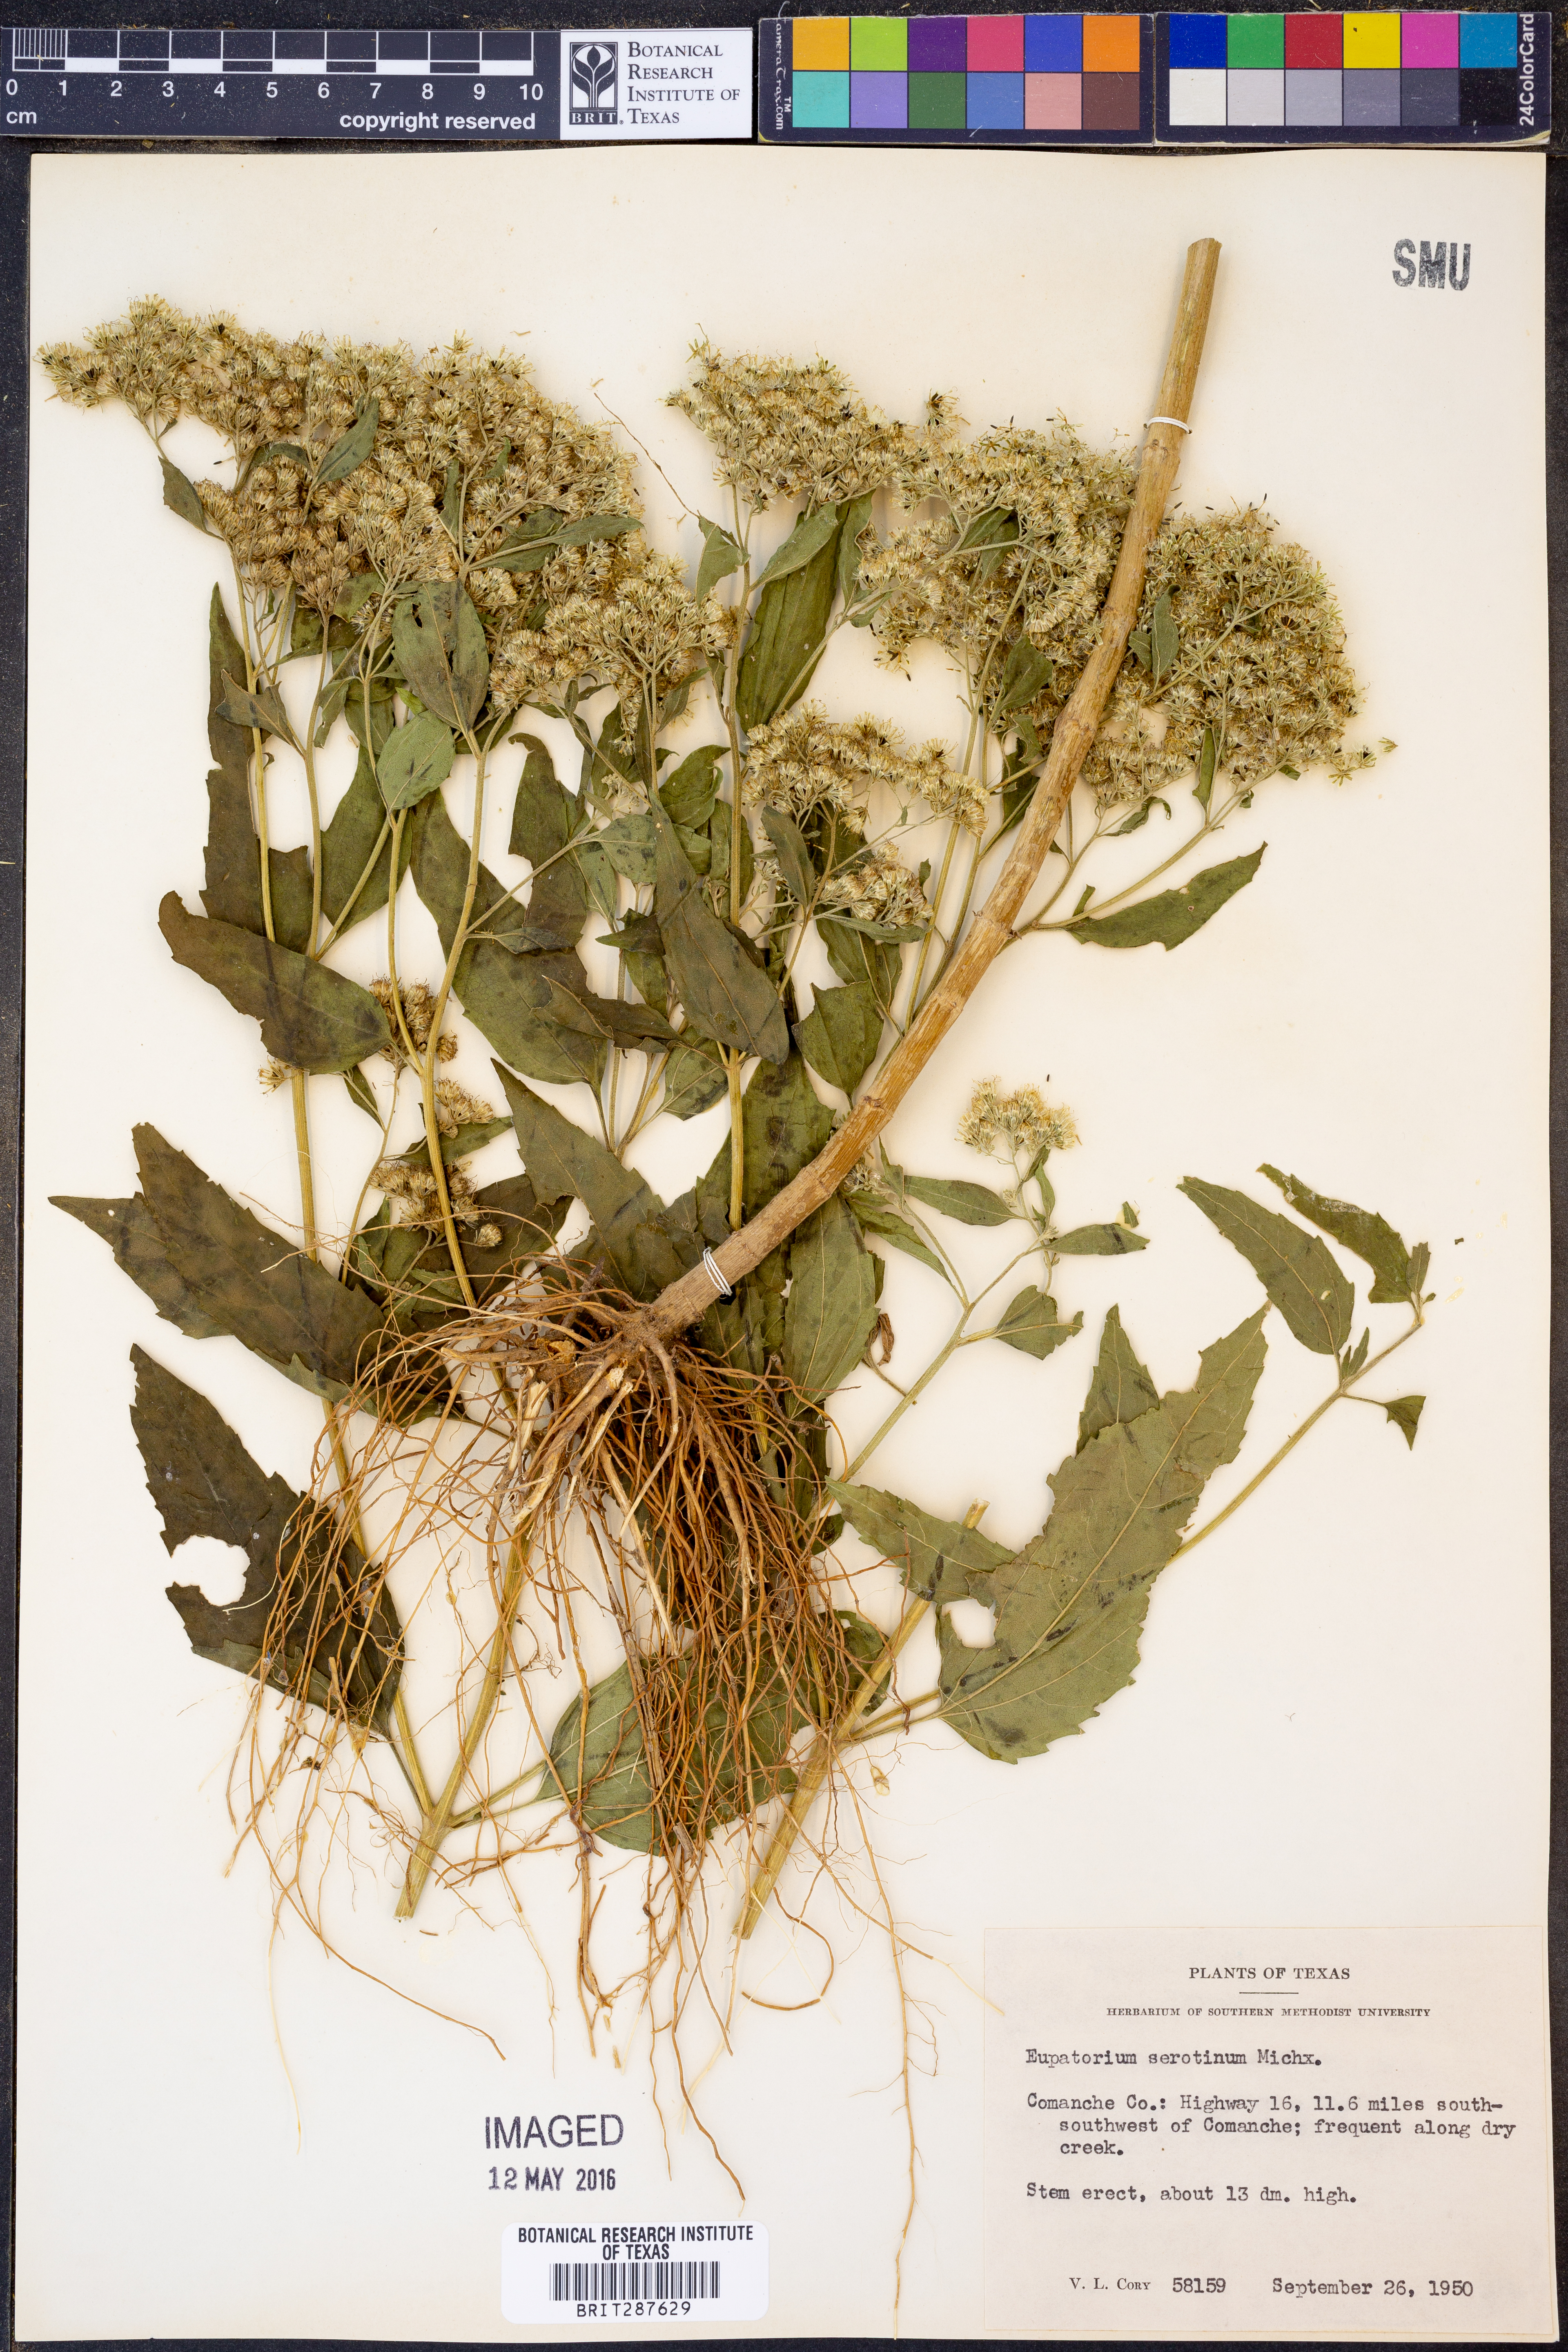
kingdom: Plantae
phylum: Tracheophyta
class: Magnoliopsida
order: Asterales
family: Asteraceae
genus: Eupatorium
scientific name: Eupatorium serotinum
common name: Late boneset
